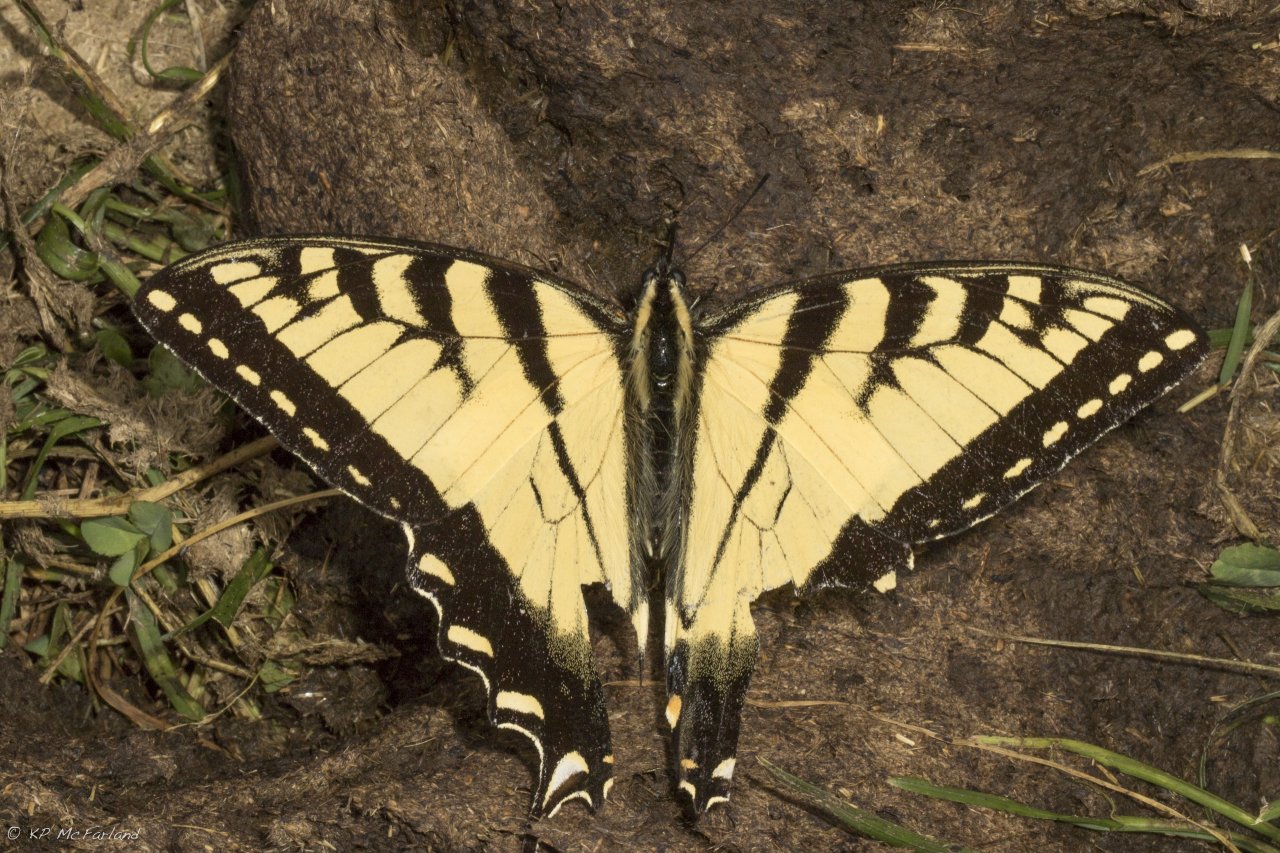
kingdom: Animalia
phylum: Arthropoda
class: Insecta
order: Lepidoptera
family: Papilionidae
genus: Pterourus
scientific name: Pterourus
